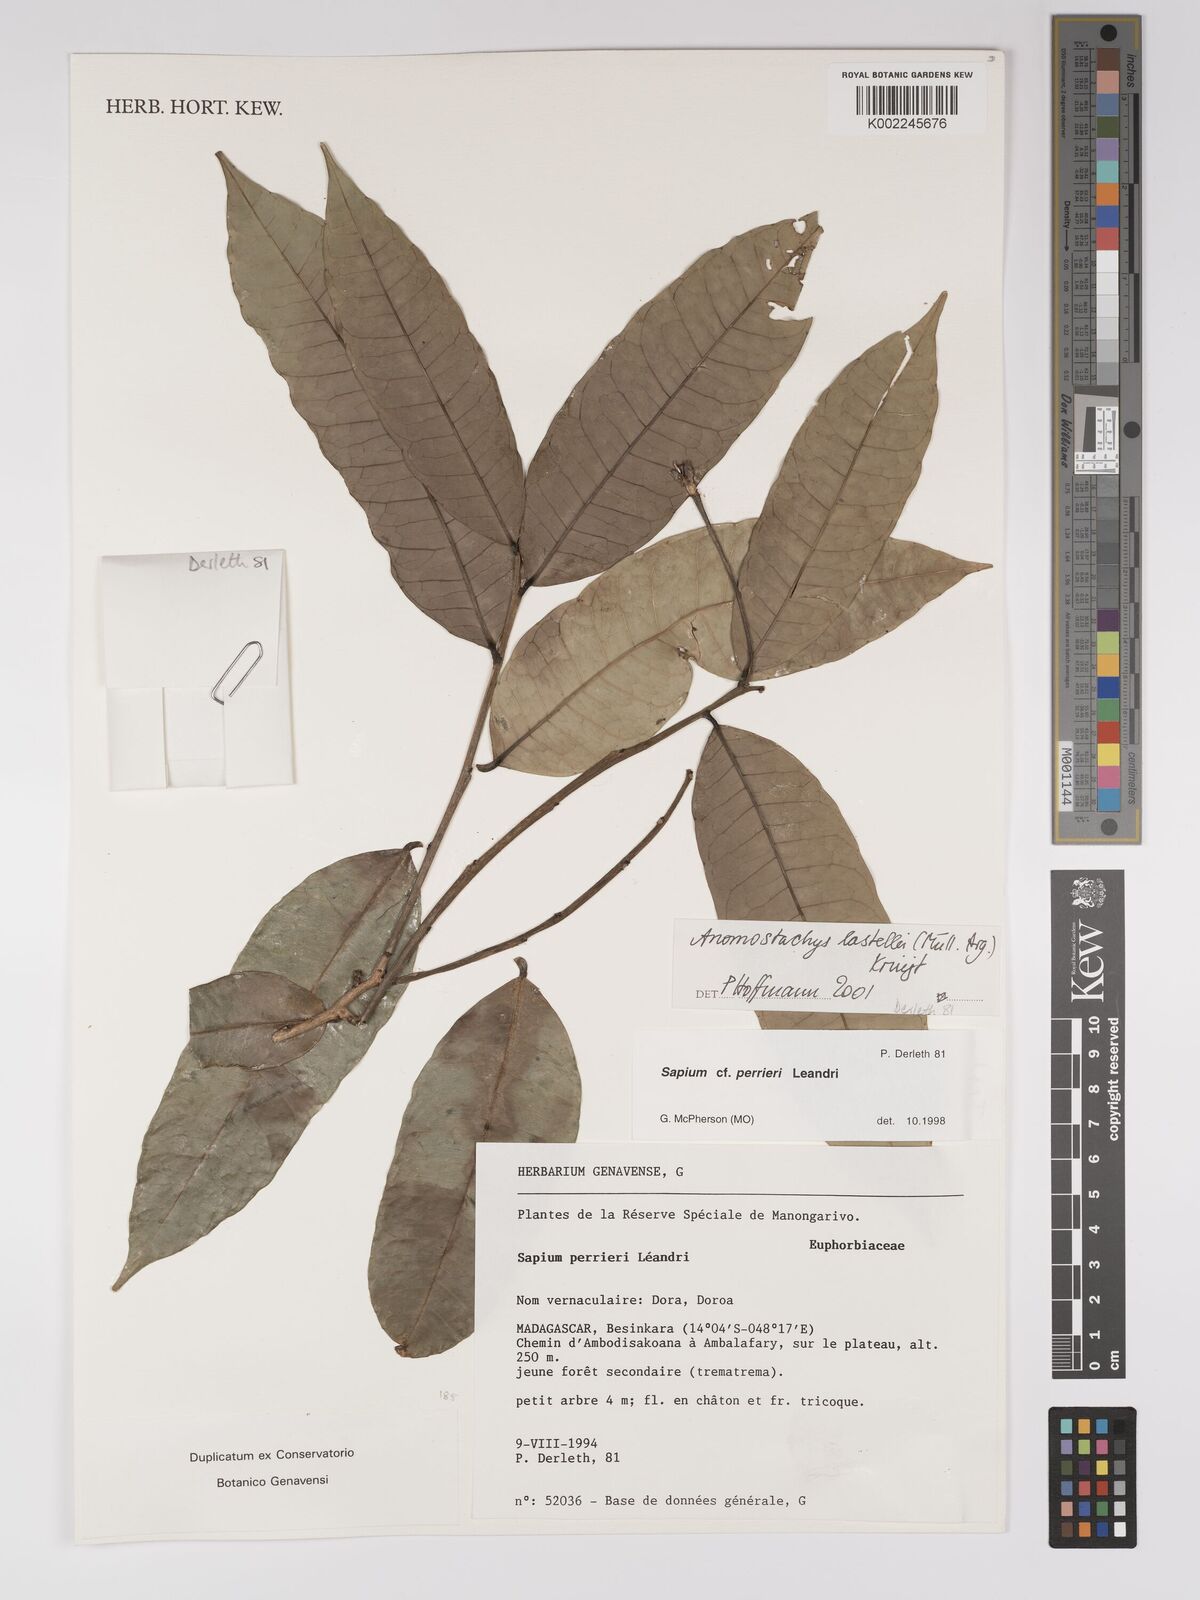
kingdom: Plantae
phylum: Tracheophyta
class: Magnoliopsida
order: Malpighiales
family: Euphorbiaceae
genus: Anomostachys
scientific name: Anomostachys lastellei
